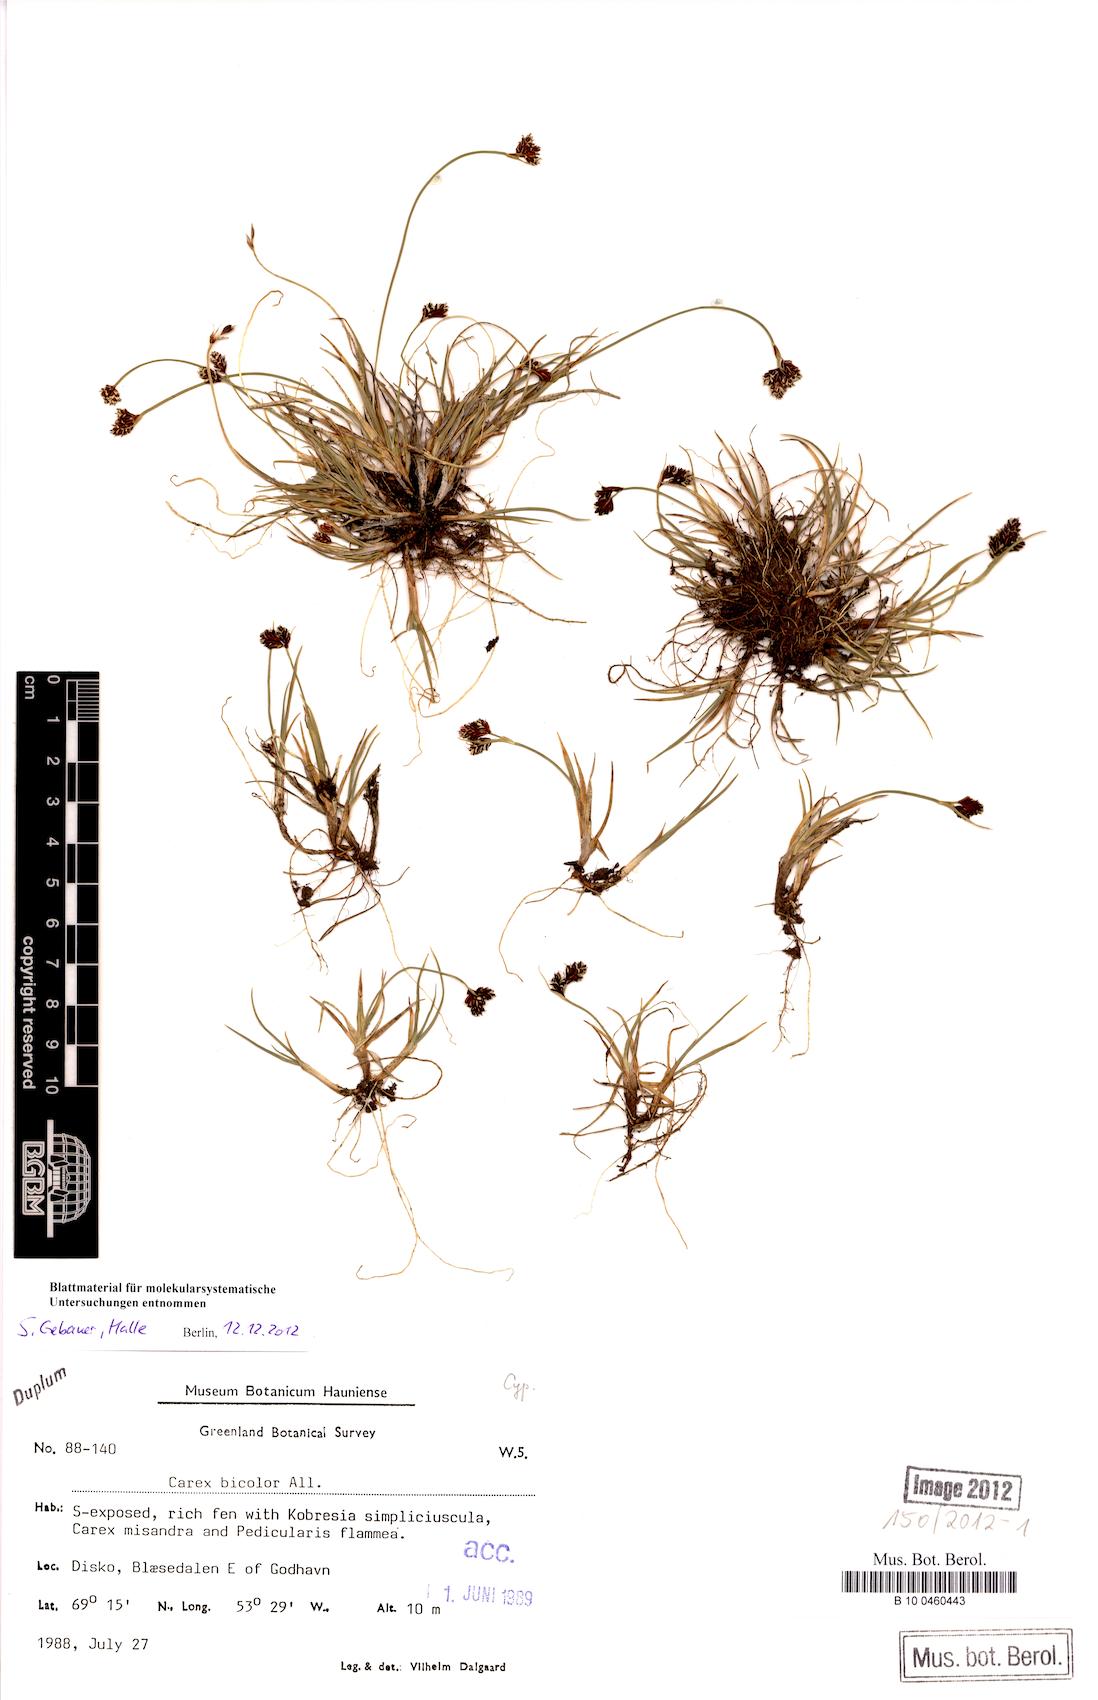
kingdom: Plantae
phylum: Tracheophyta
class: Liliopsida
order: Poales
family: Cyperaceae
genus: Carex
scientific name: Carex bicolor
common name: Bicoloured sedge
